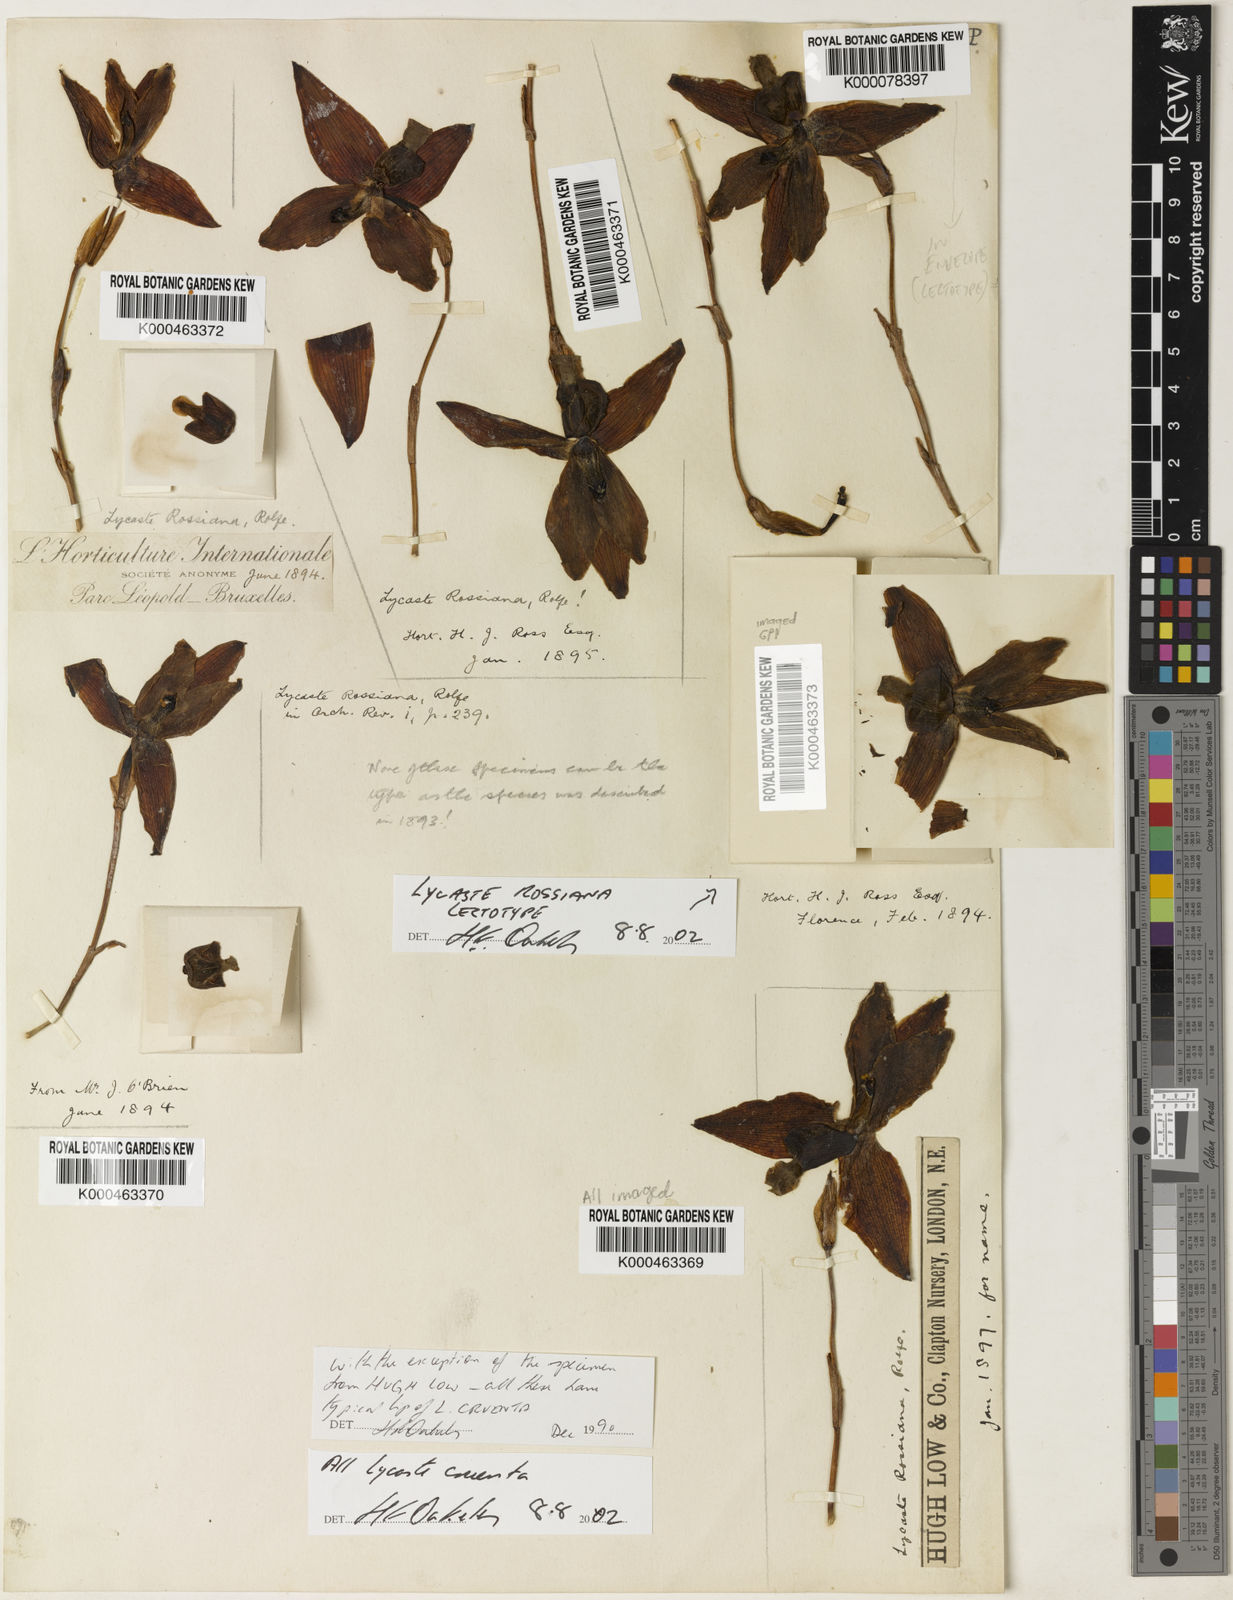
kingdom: Plantae
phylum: Tracheophyta
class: Liliopsida
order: Asparagales
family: Orchidaceae
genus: Lycaste
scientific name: Lycaste cruenta
